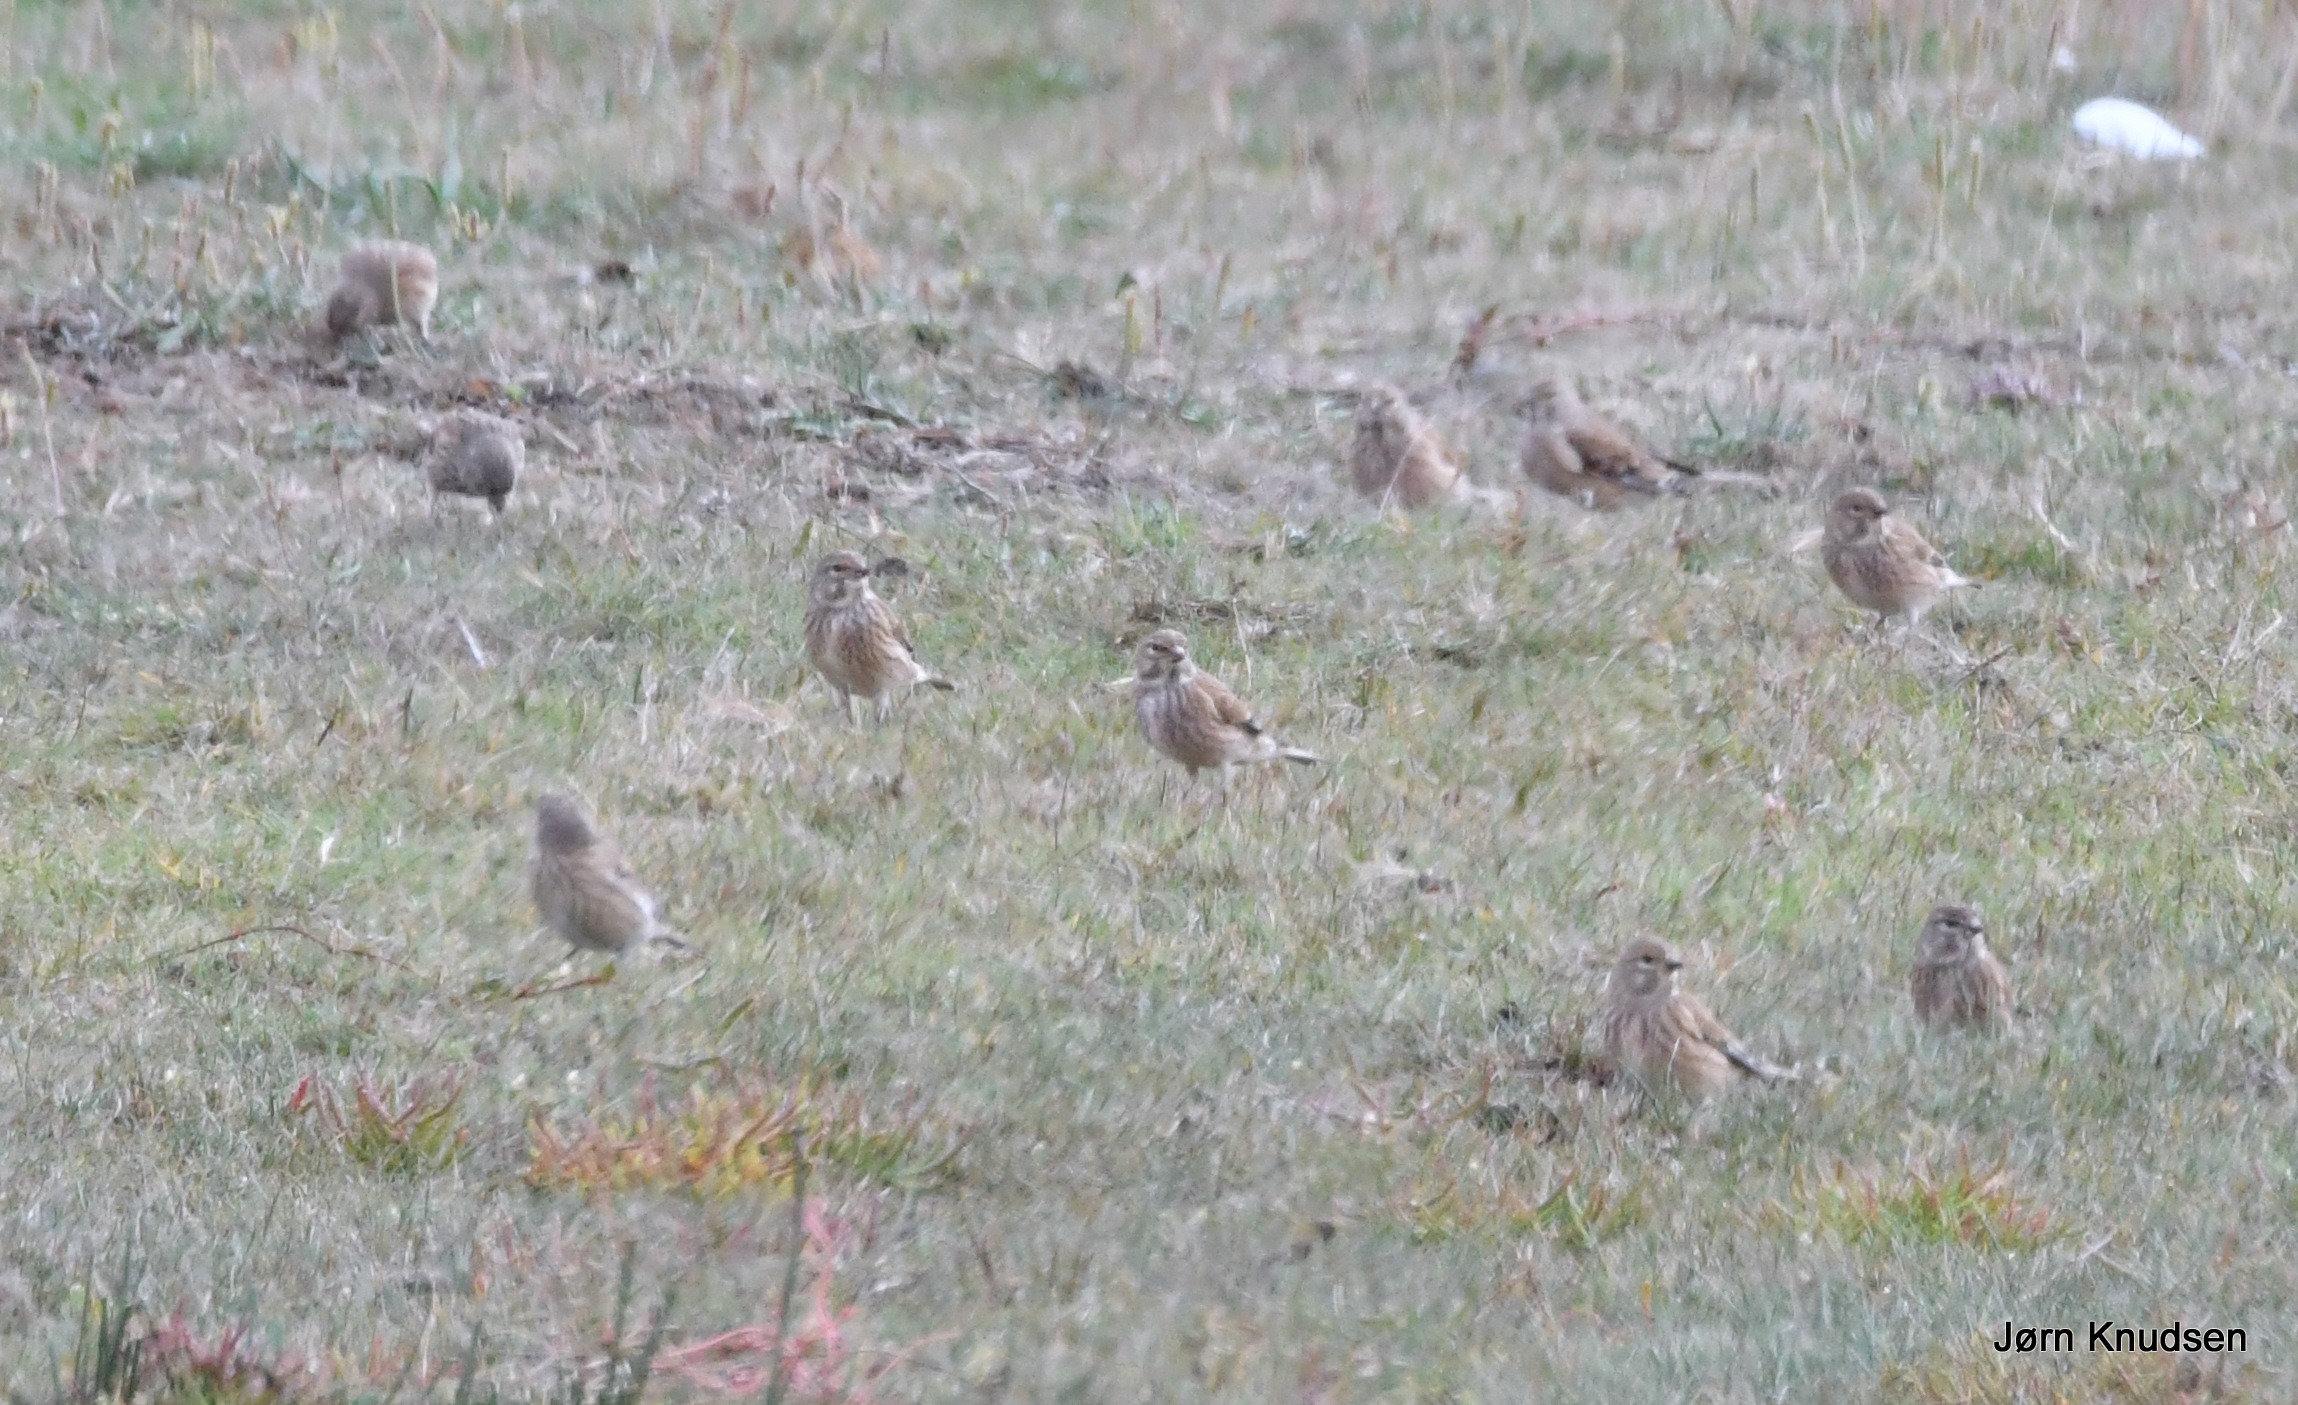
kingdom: Animalia
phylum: Chordata
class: Aves
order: Passeriformes
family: Fringillidae
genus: Linaria
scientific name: Linaria cannabina
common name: Tornirisk
